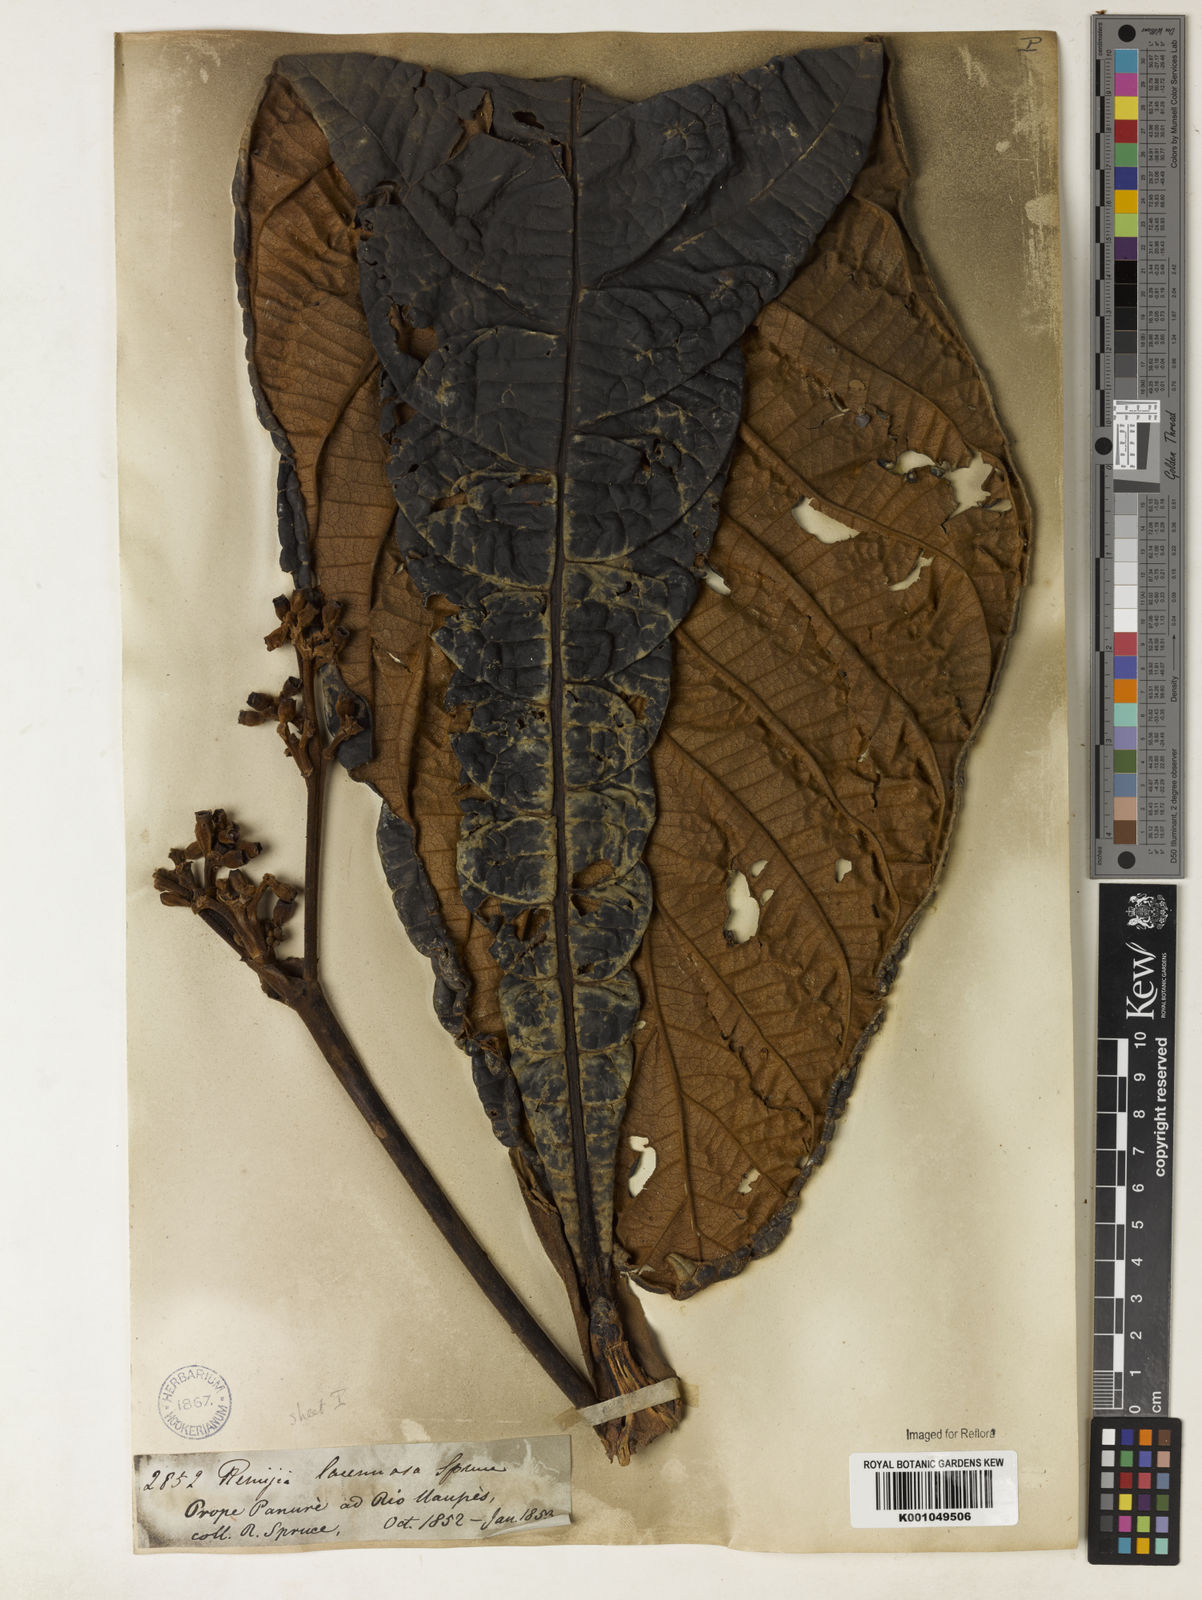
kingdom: Plantae
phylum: Tracheophyta
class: Magnoliopsida
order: Gentianales
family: Rubiaceae
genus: Remijia
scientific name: Remijia lacunosa
